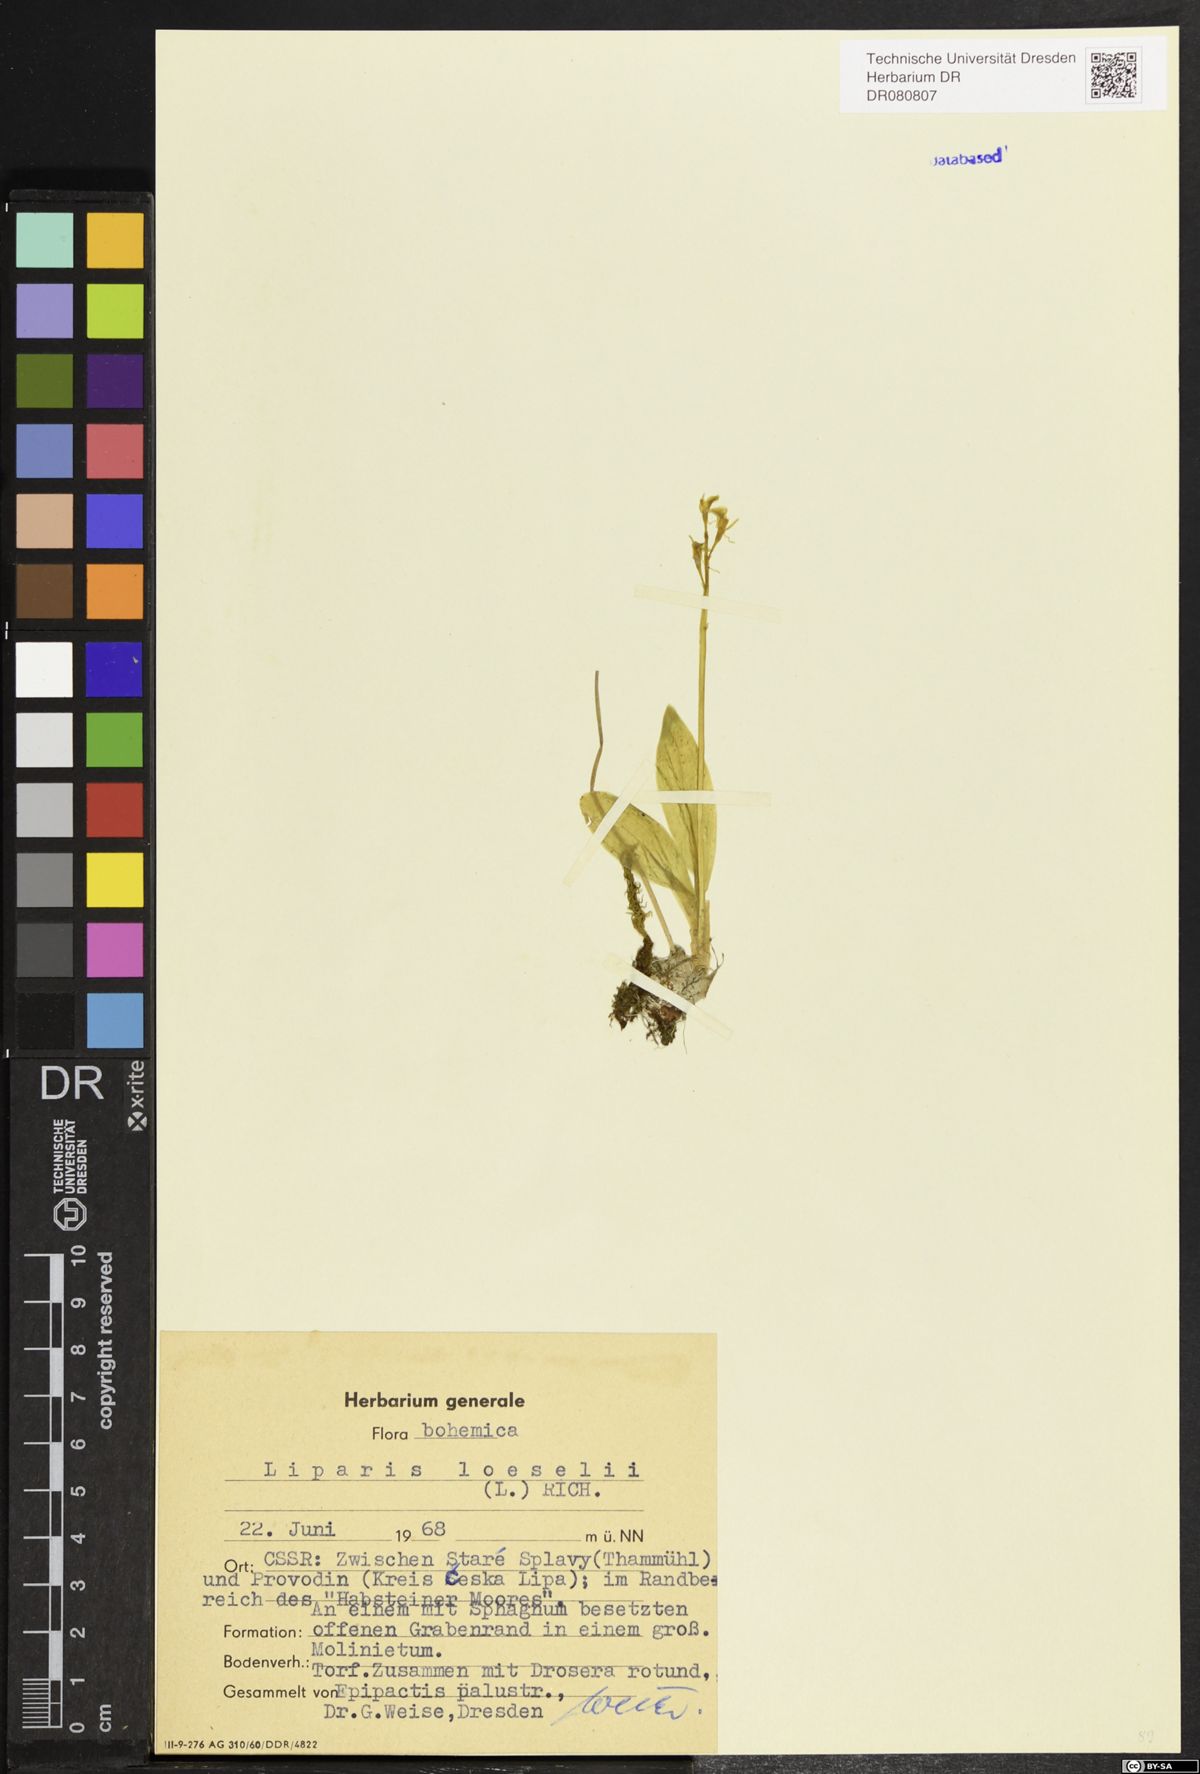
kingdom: Animalia
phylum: Arthropoda
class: Insecta
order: Coleoptera
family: Curculionidae
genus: Liparis
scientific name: Liparis loeselii
